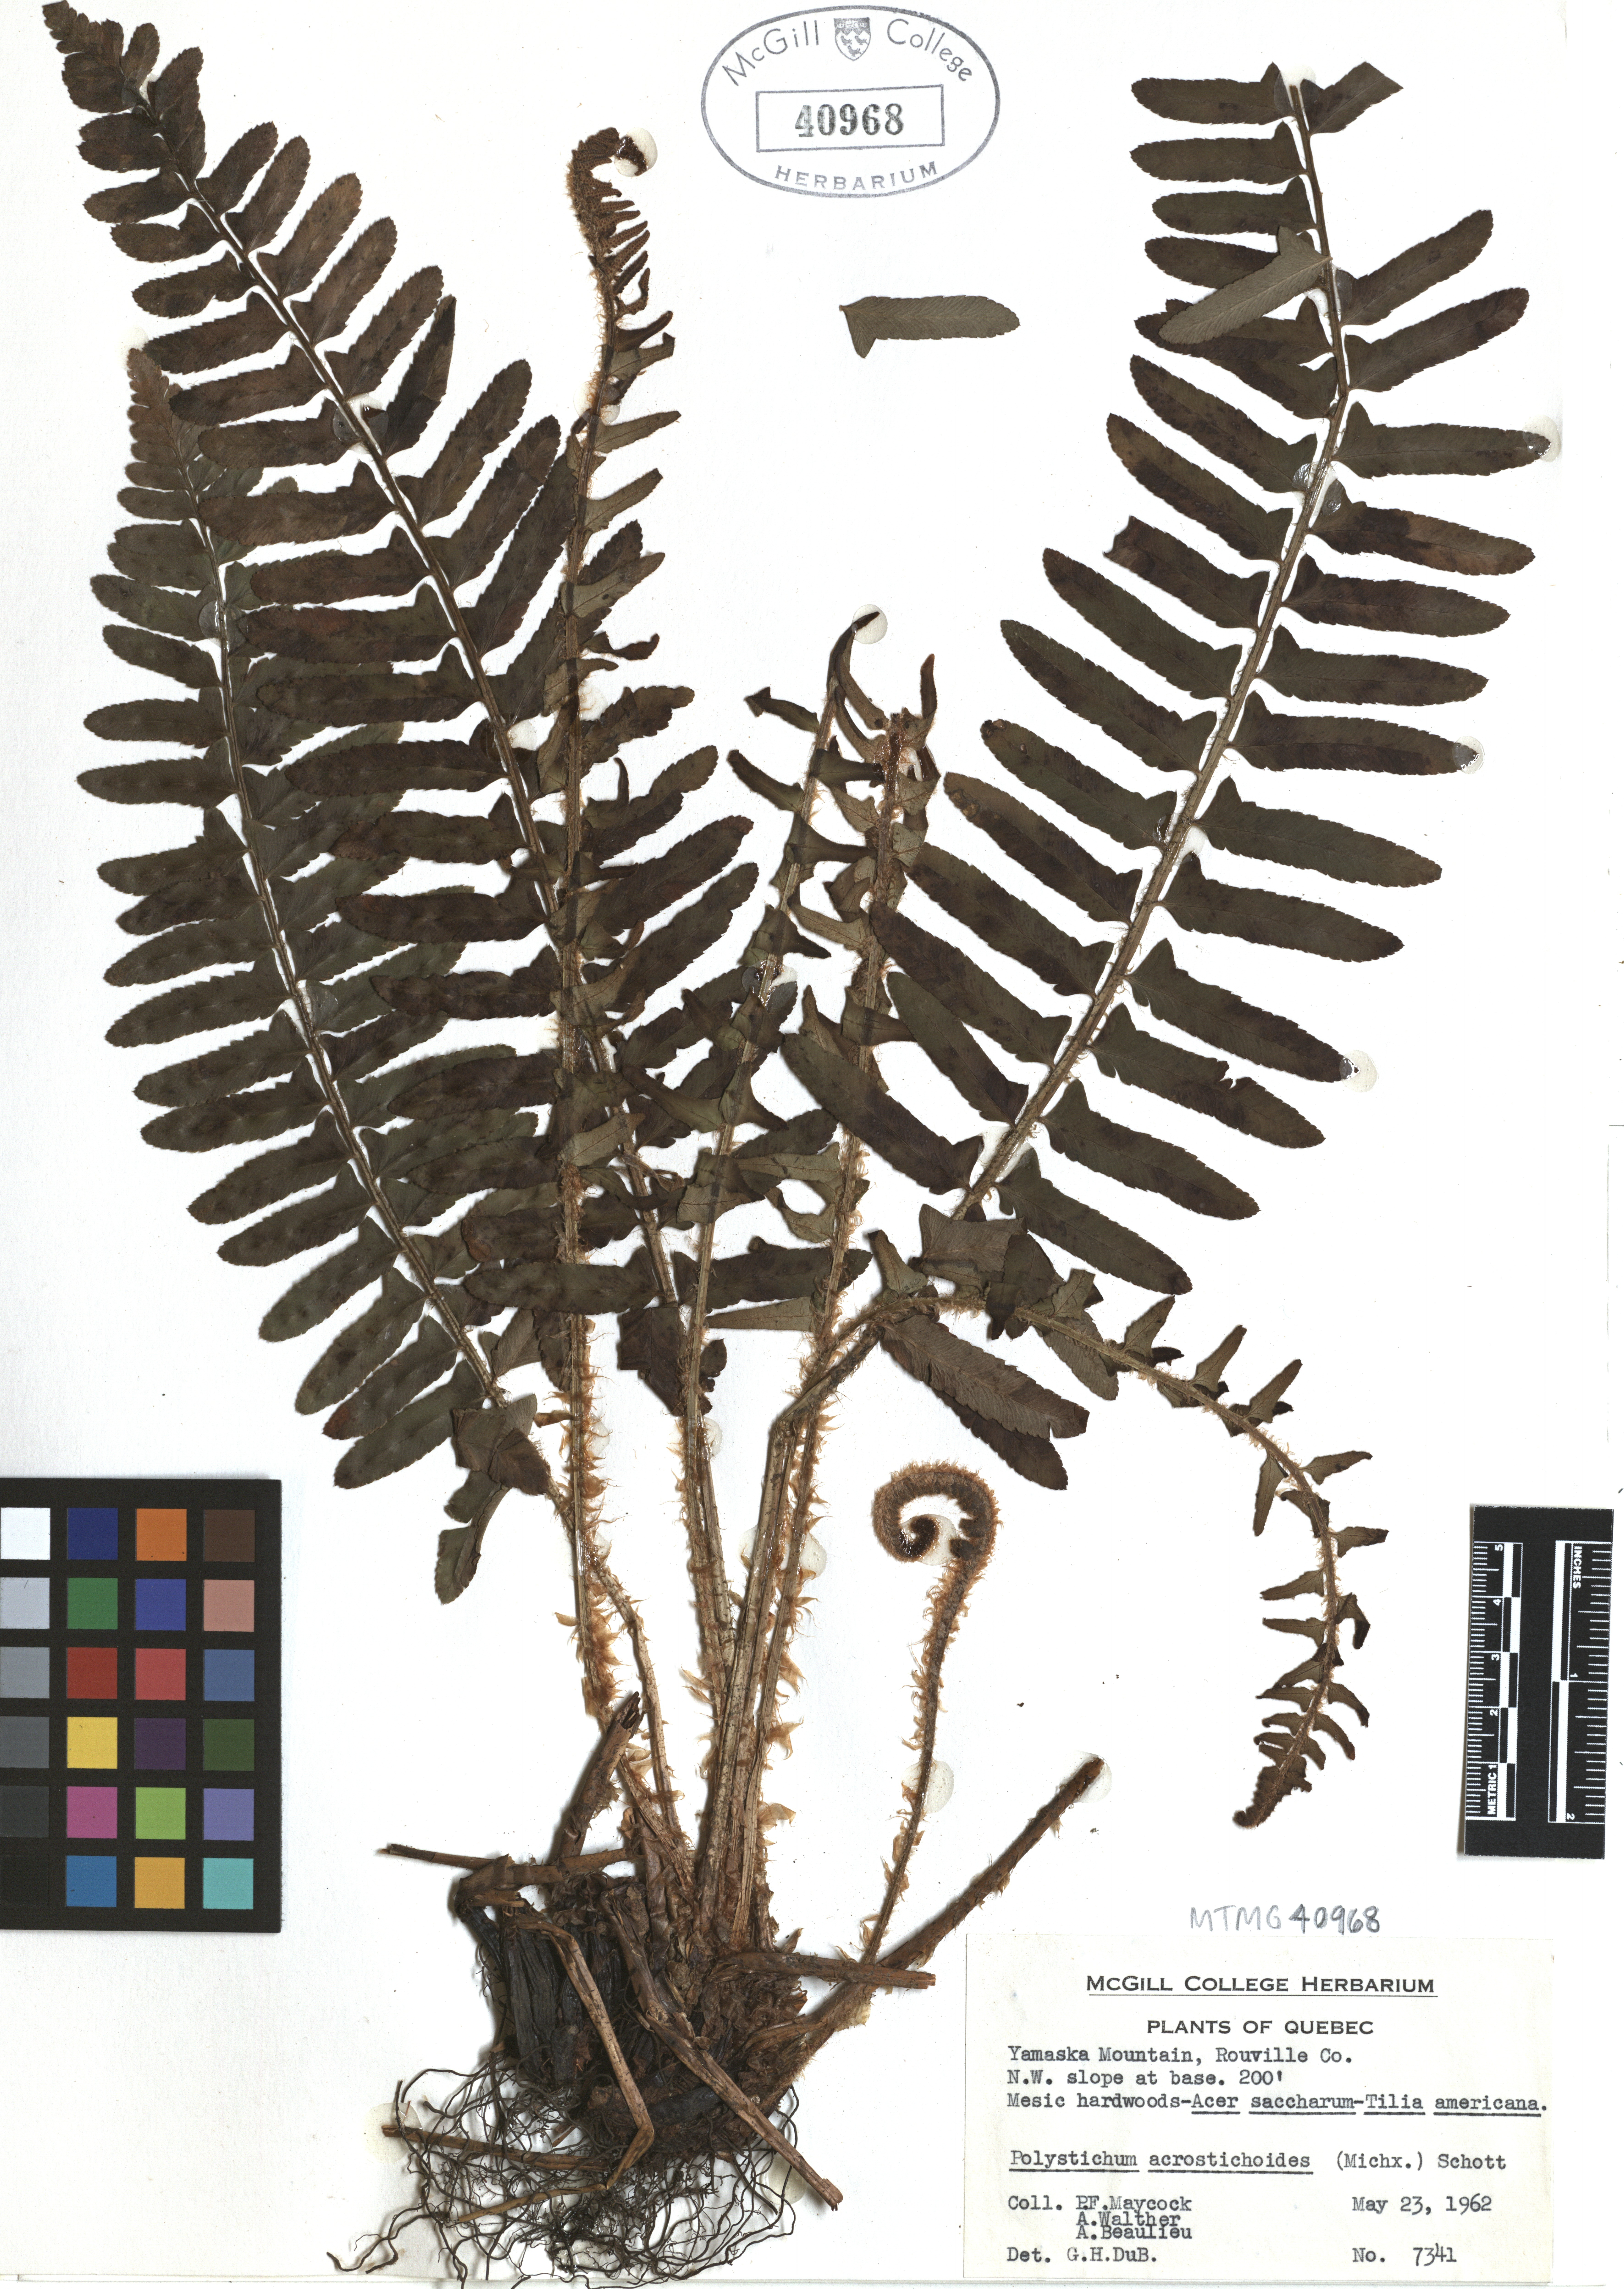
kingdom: Plantae
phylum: Tracheophyta
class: Polypodiopsida
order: Polypodiales
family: Dryopteridaceae
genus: Polystichum
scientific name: Polystichum acrostichoides
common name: Christmas fern
